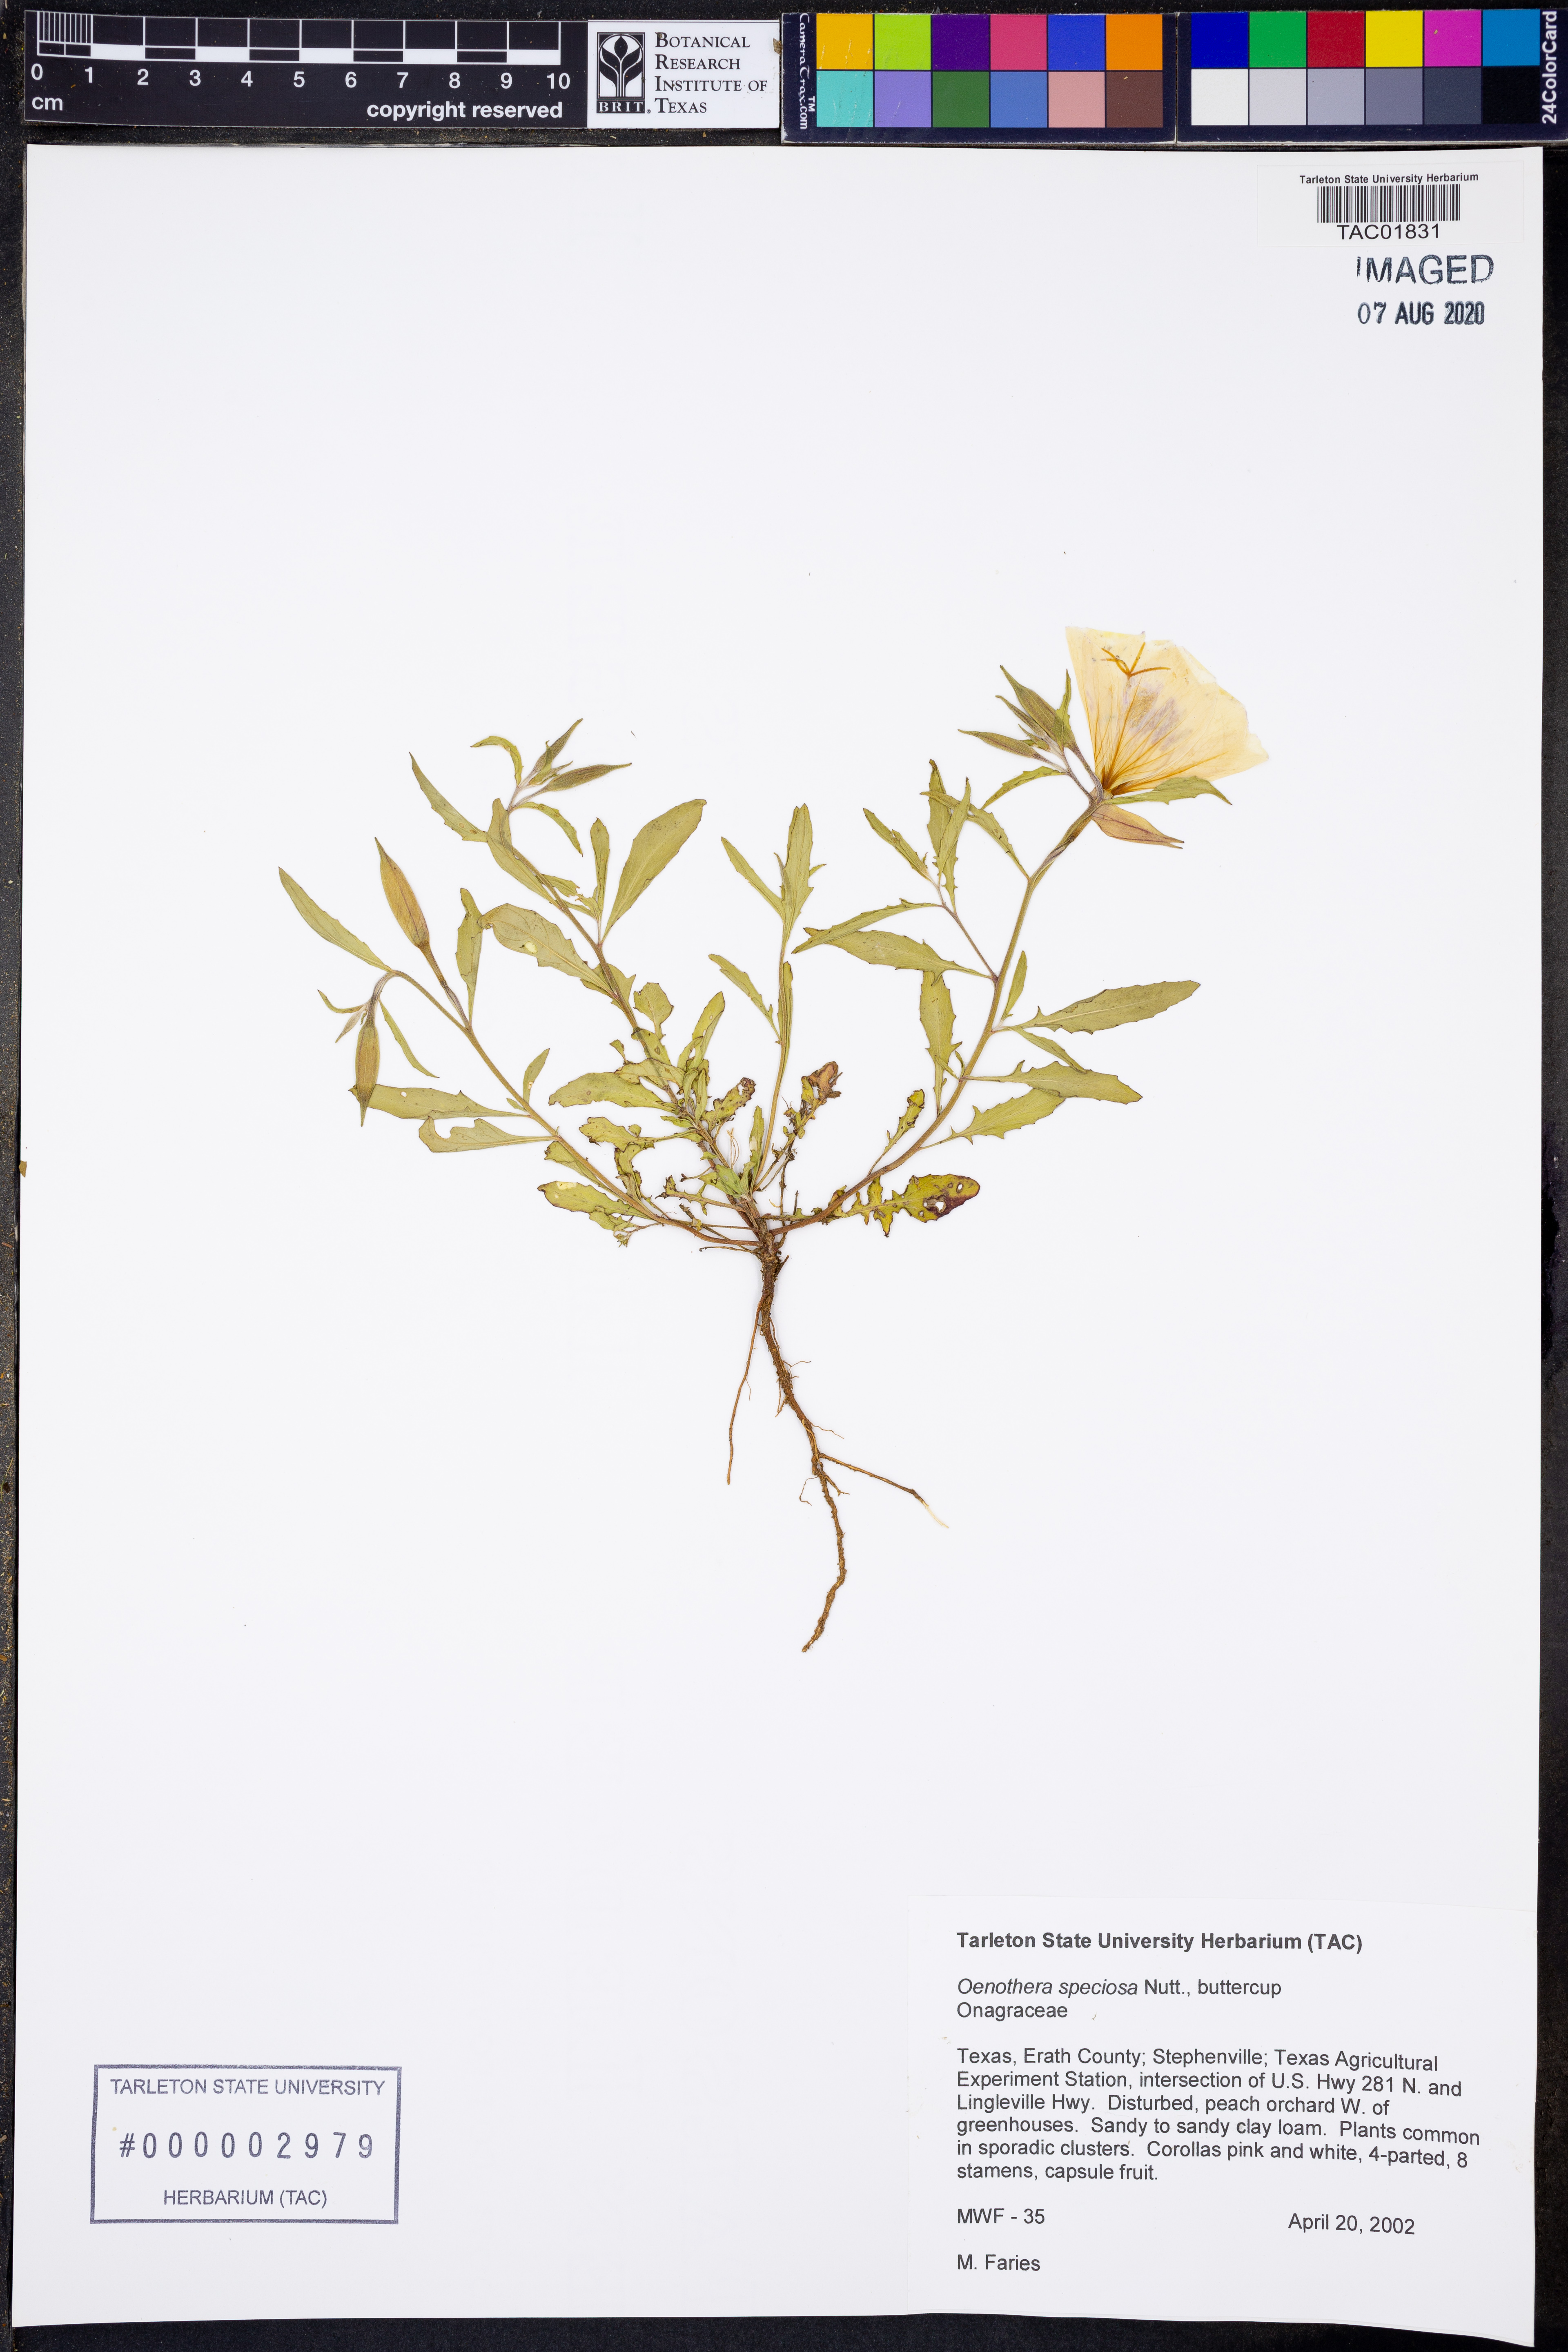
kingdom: Plantae
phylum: Tracheophyta
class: Magnoliopsida
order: Myrtales
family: Onagraceae
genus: Oenothera
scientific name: Oenothera speciosa
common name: White evening-primrose
